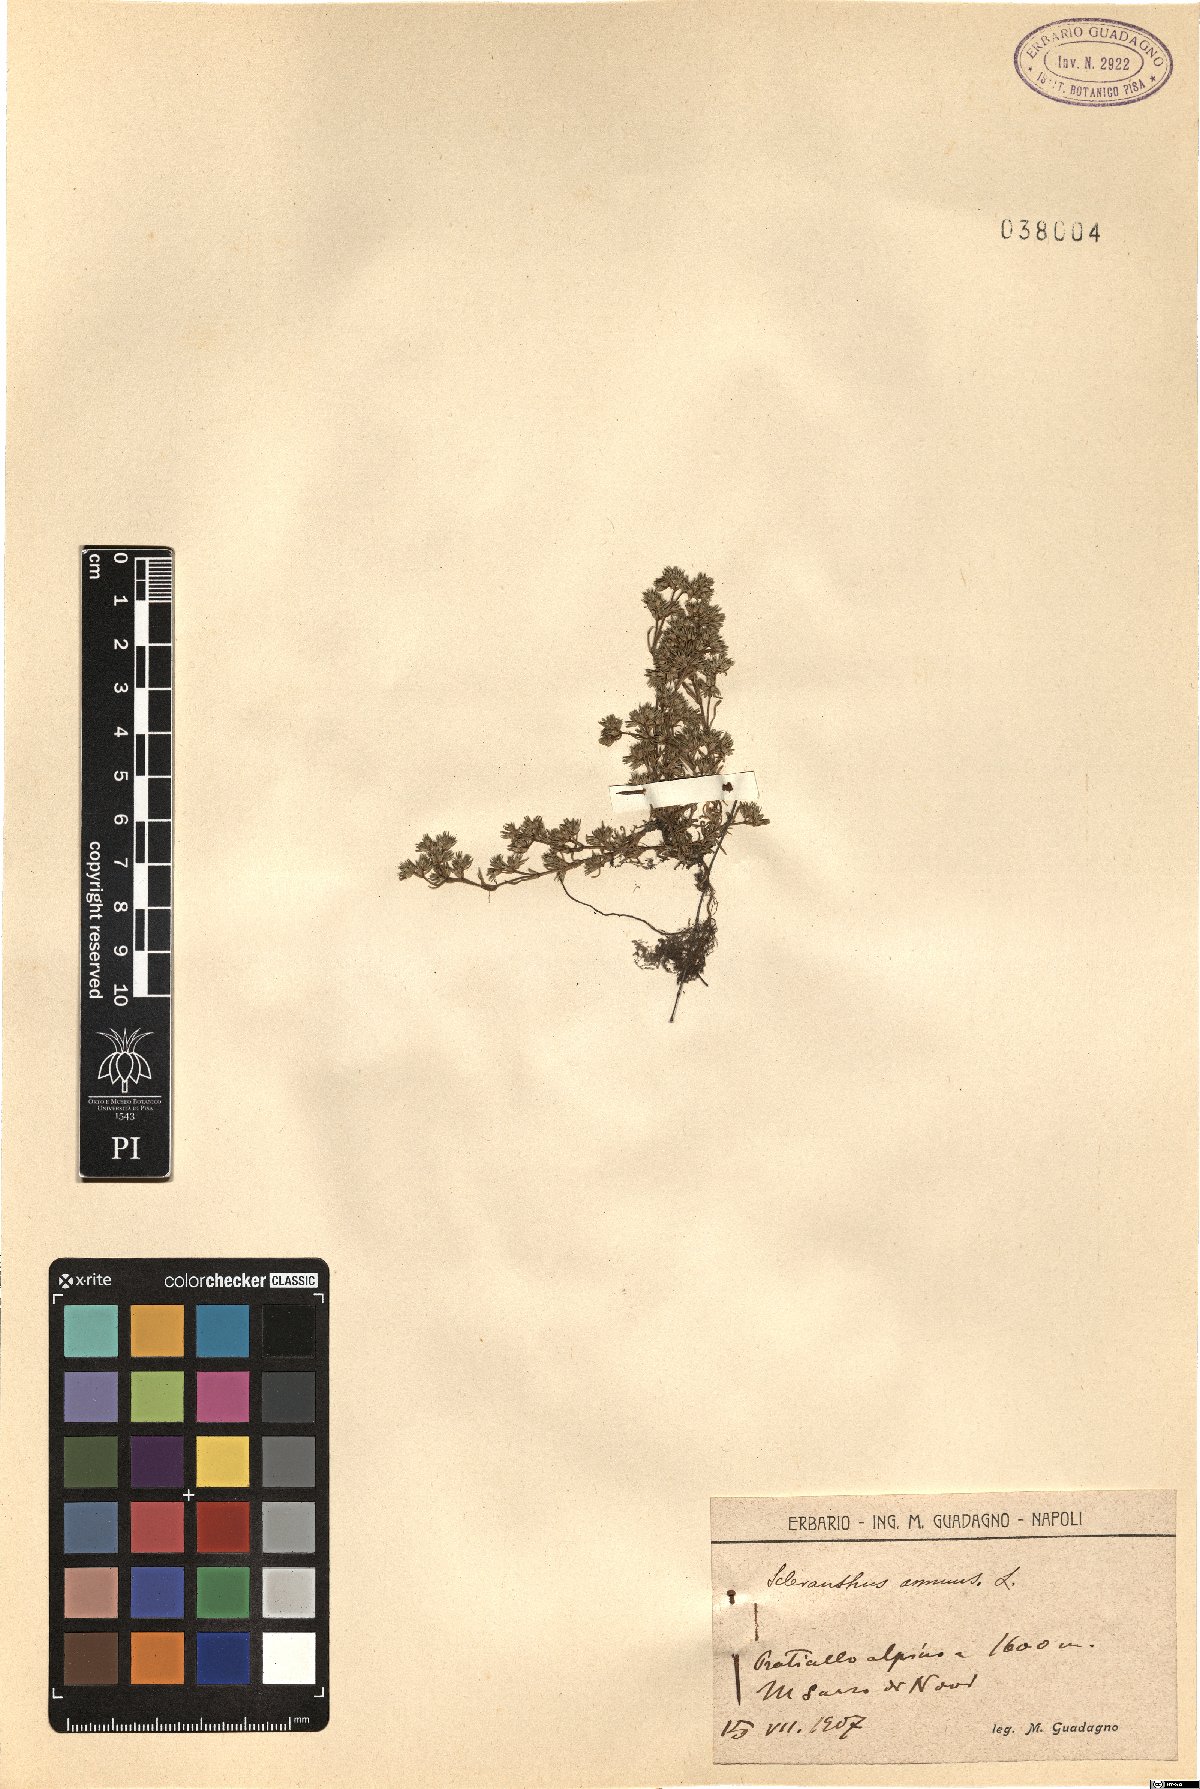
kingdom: Plantae
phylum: Tracheophyta
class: Magnoliopsida
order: Caryophyllales
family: Caryophyllaceae
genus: Scleranthus
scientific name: Scleranthus annuus
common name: Annual knawel
